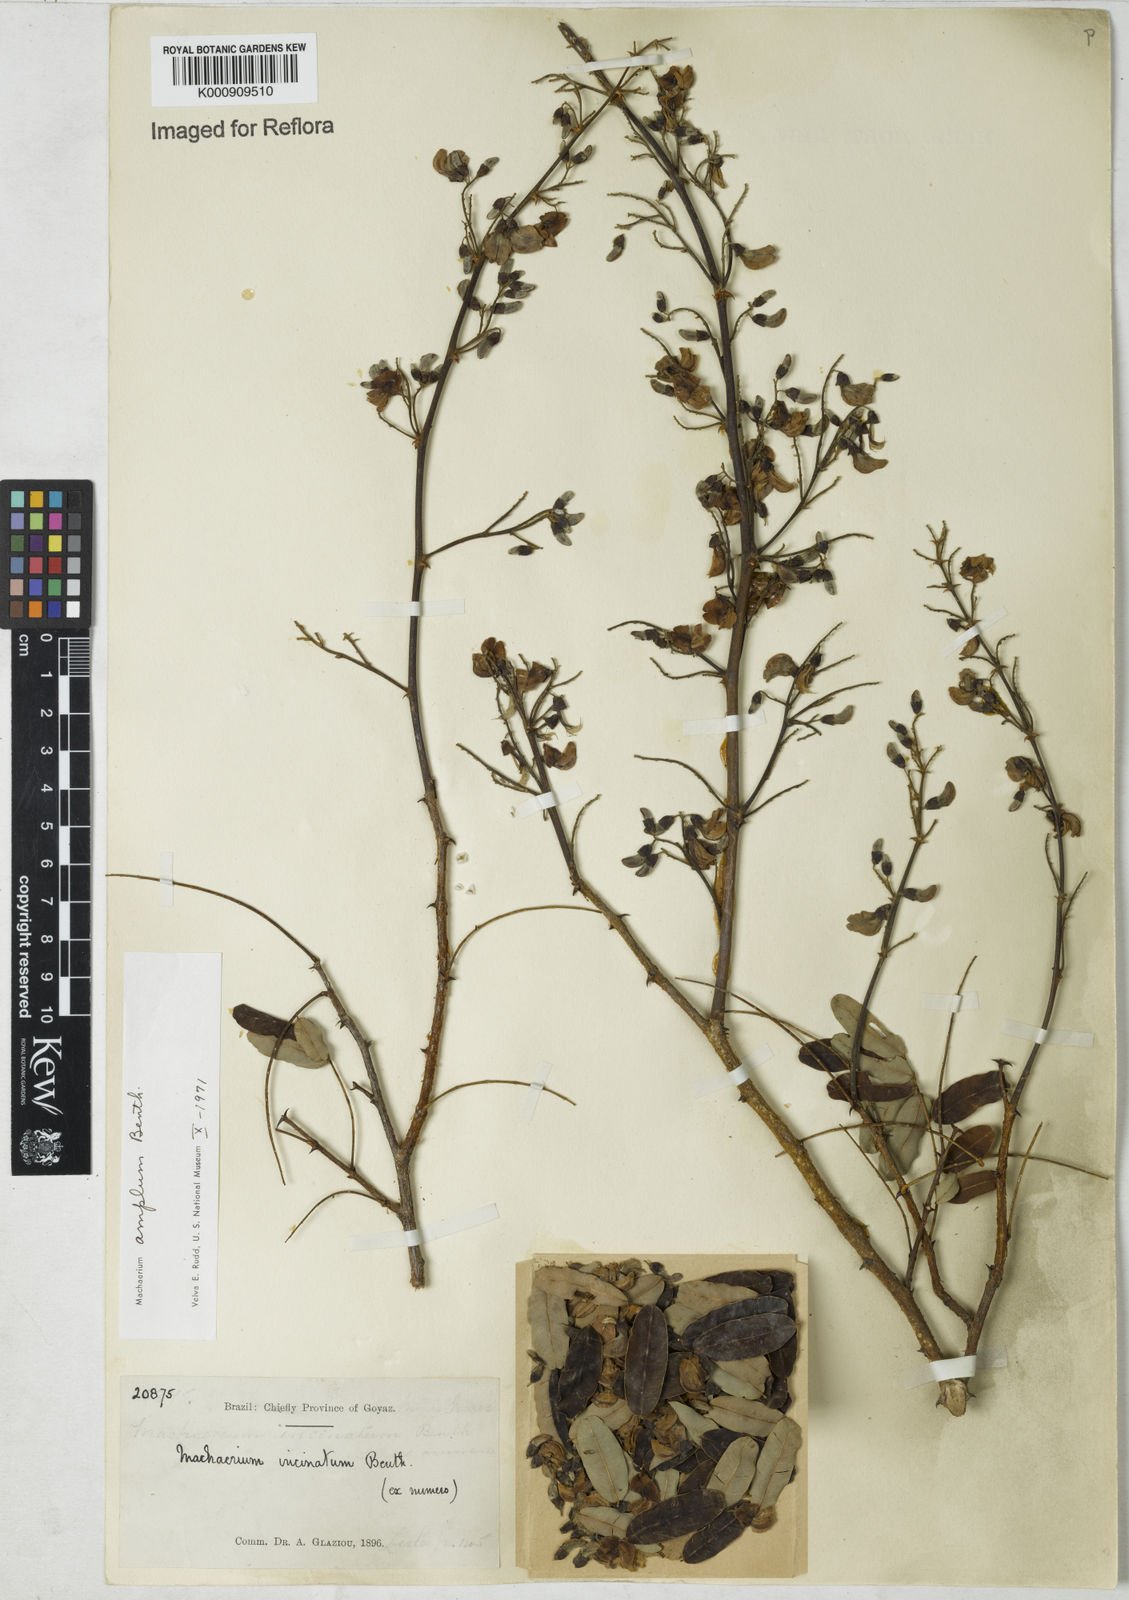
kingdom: Plantae
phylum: Tracheophyta
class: Magnoliopsida
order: Fabales
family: Fabaceae
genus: Machaerium
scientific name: Machaerium amplum
